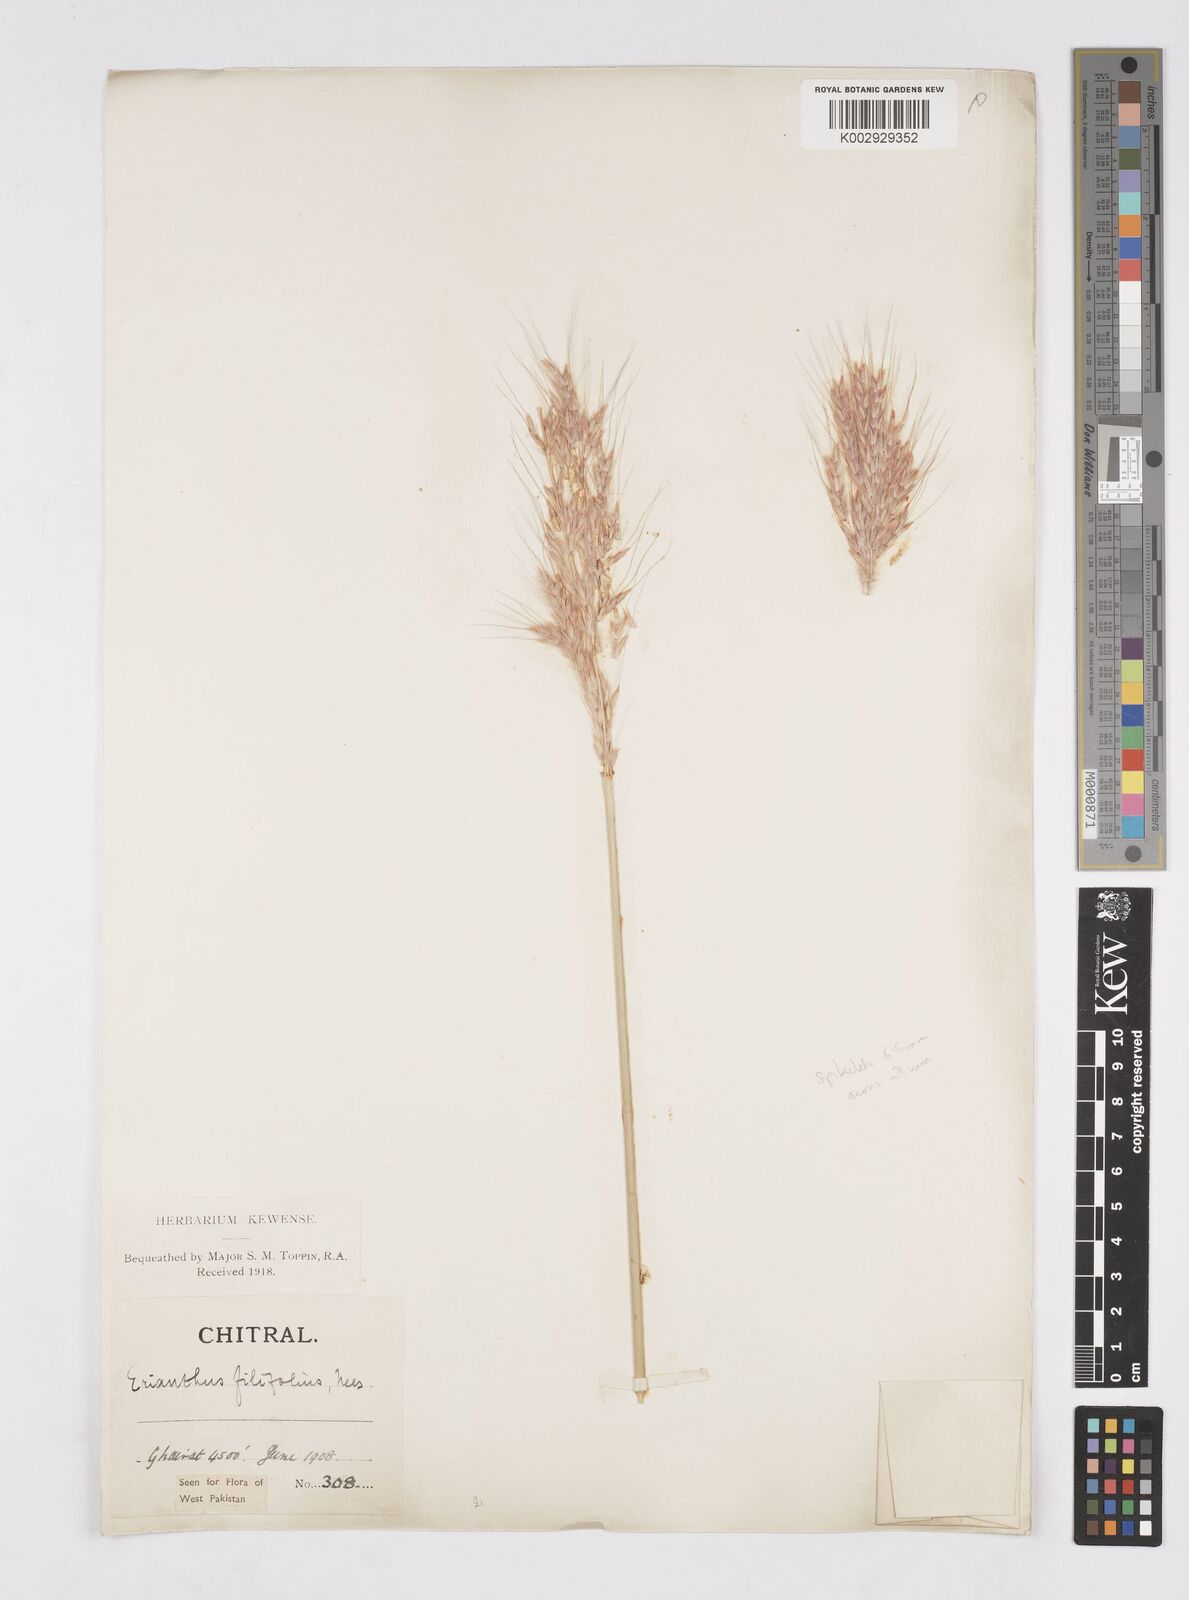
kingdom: Plantae
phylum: Tracheophyta
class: Liliopsida
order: Poales
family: Poaceae
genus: Saccharum
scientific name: Saccharum filifolium
